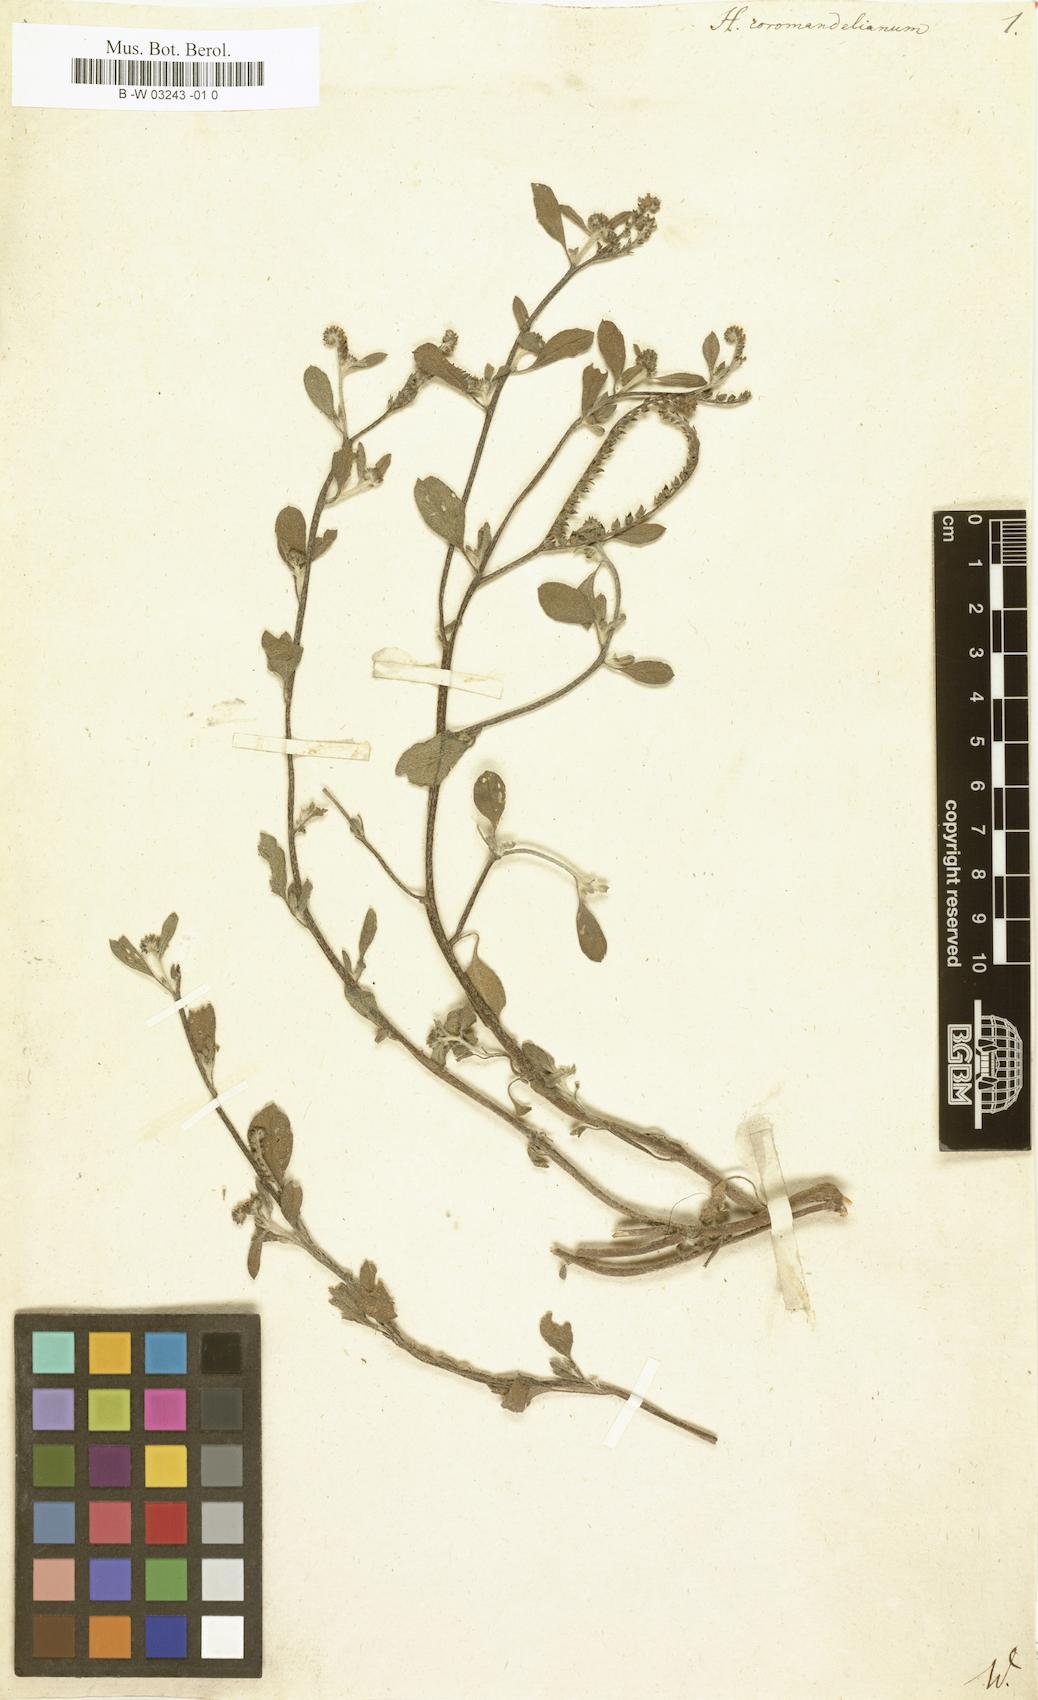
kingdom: Plantae
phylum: Tracheophyta
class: Magnoliopsida
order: Boraginales
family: Heliotropiaceae
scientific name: Heliotropiaceae
